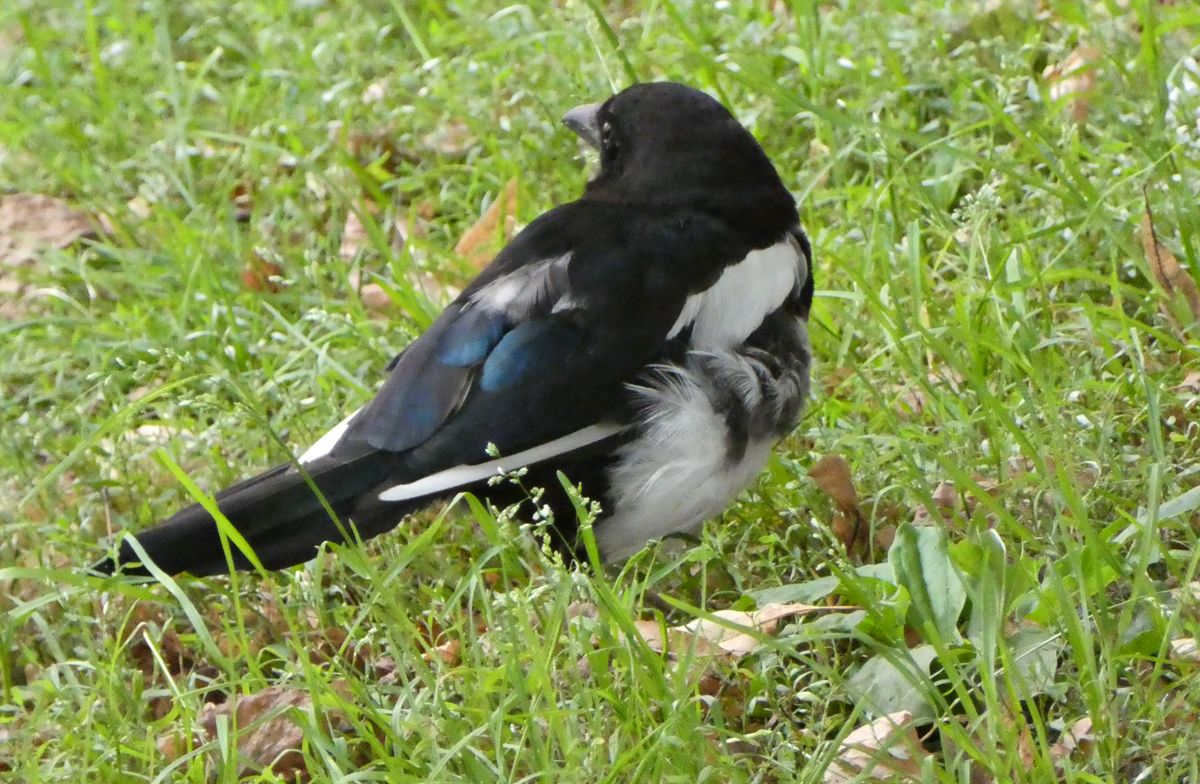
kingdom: Animalia
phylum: Chordata
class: Aves
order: Passeriformes
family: Corvidae
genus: Pica
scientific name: Pica pica
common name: Eurasian magpie
